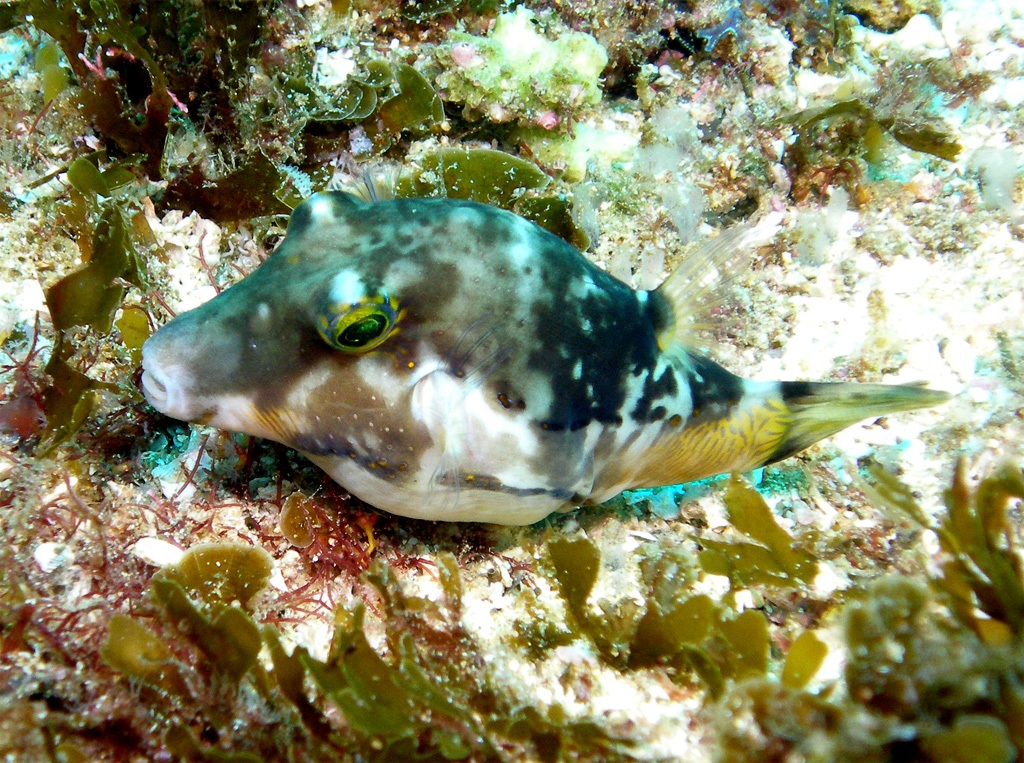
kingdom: Animalia
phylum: Chordata
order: Tetraodontiformes
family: Tetraodontidae
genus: Canthigaster
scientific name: Canthigaster smithae
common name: Bicolored toby
